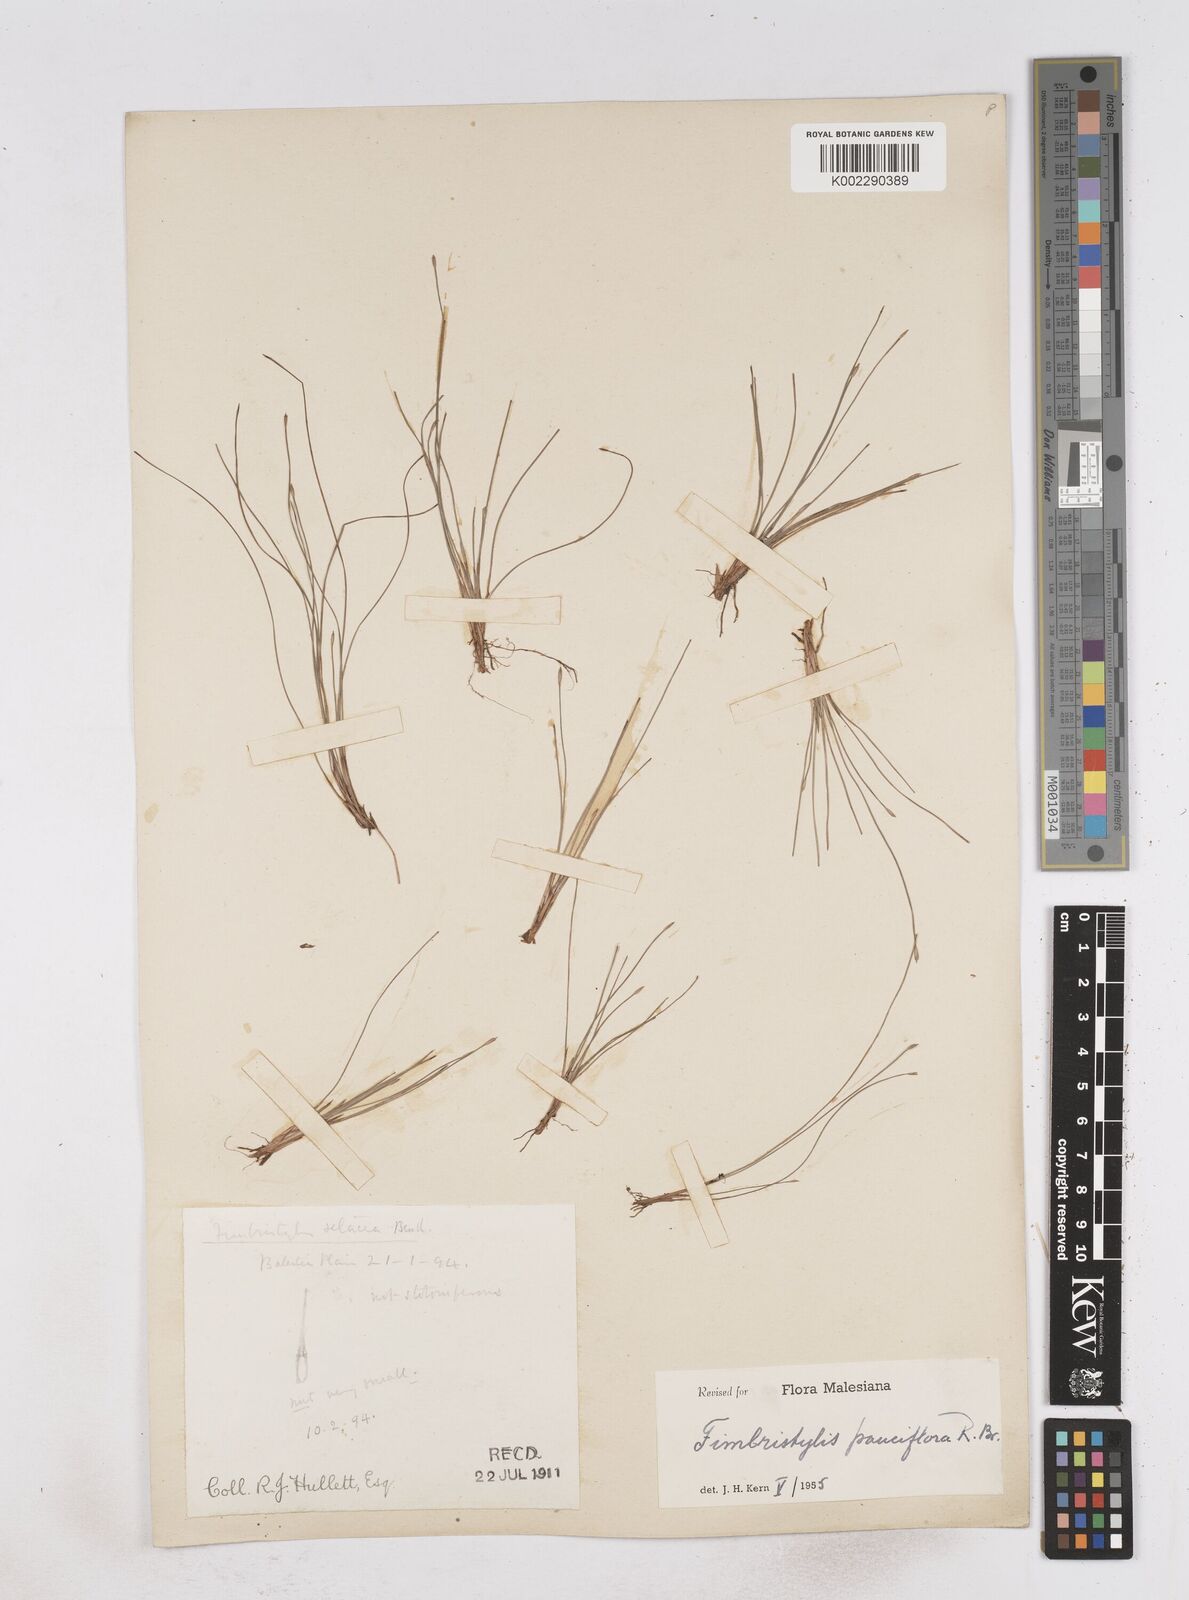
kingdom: Plantae
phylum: Tracheophyta
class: Liliopsida
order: Poales
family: Cyperaceae
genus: Fimbristylis
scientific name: Fimbristylis pauciflora
